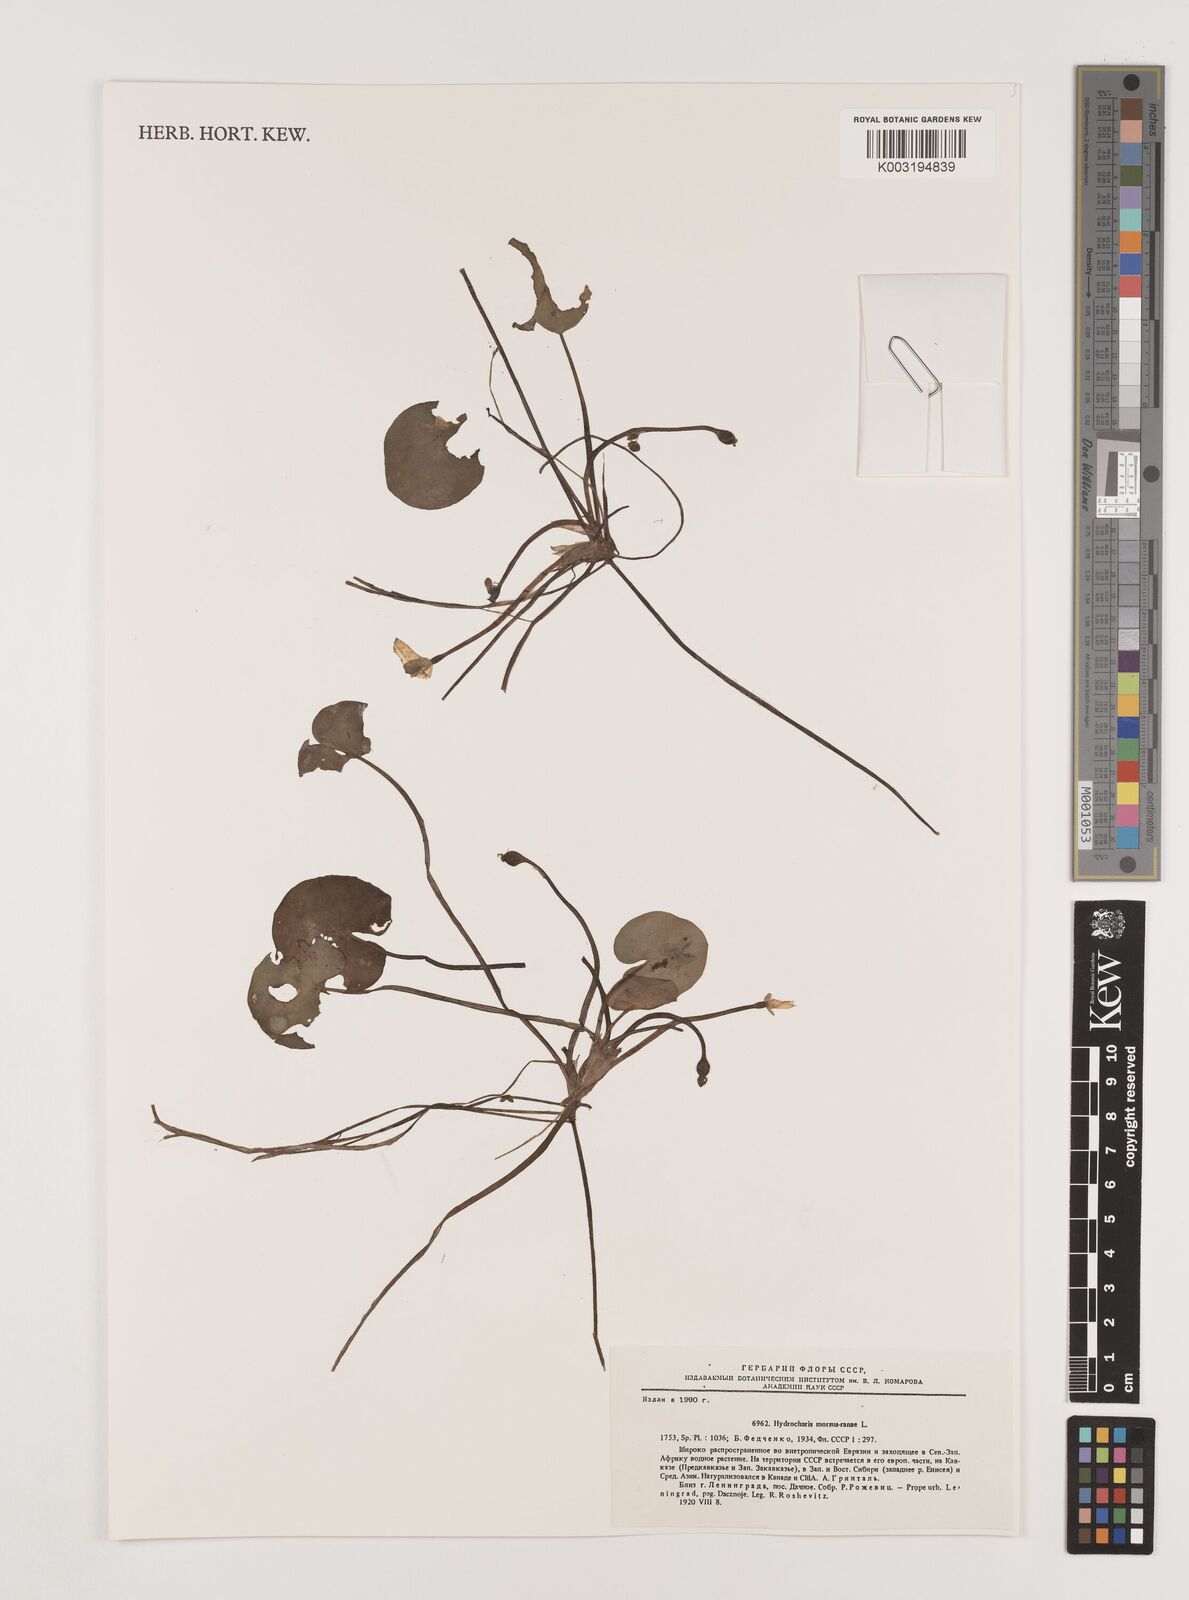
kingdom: Plantae
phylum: Tracheophyta
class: Liliopsida
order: Alismatales
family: Hydrocharitaceae
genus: Hydrocharis
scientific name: Hydrocharis morsus-ranae
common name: Frogbit
